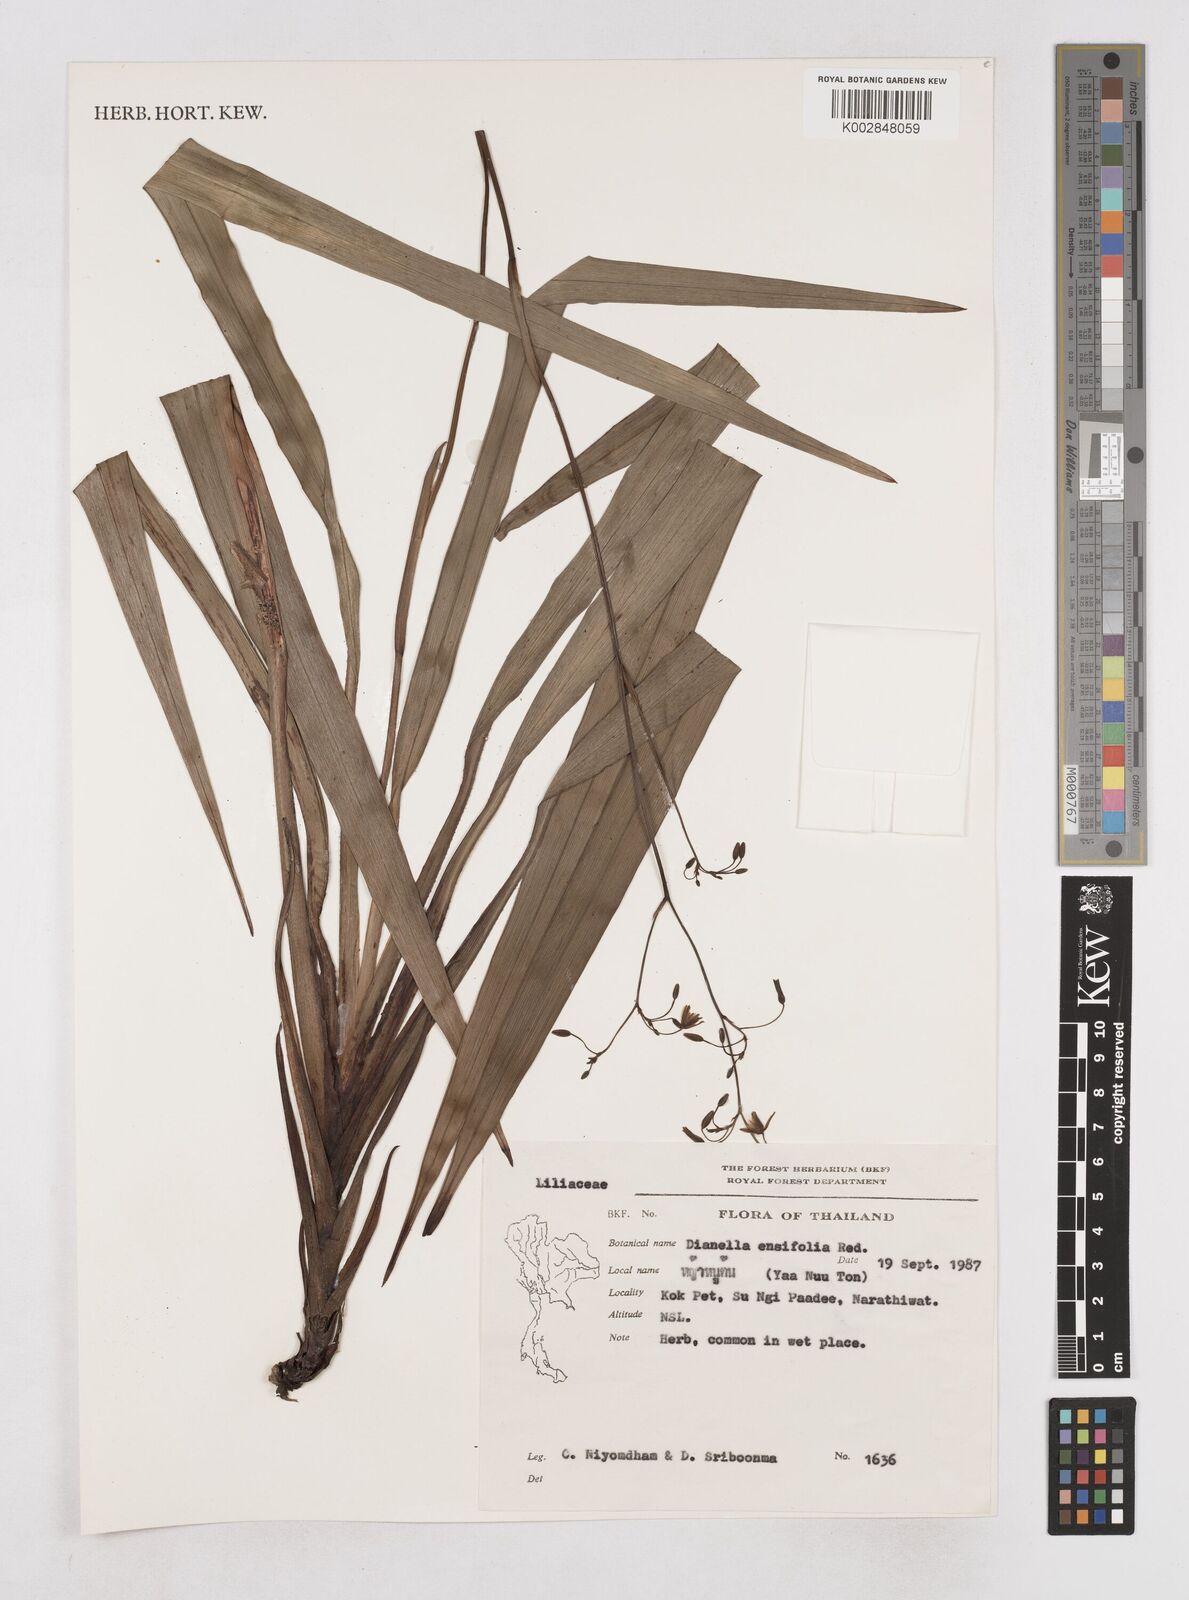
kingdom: Plantae
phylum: Tracheophyta
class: Liliopsida
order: Asparagales
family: Asphodelaceae
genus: Dianella
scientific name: Dianella ensifolia
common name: New zealand lilyplant
